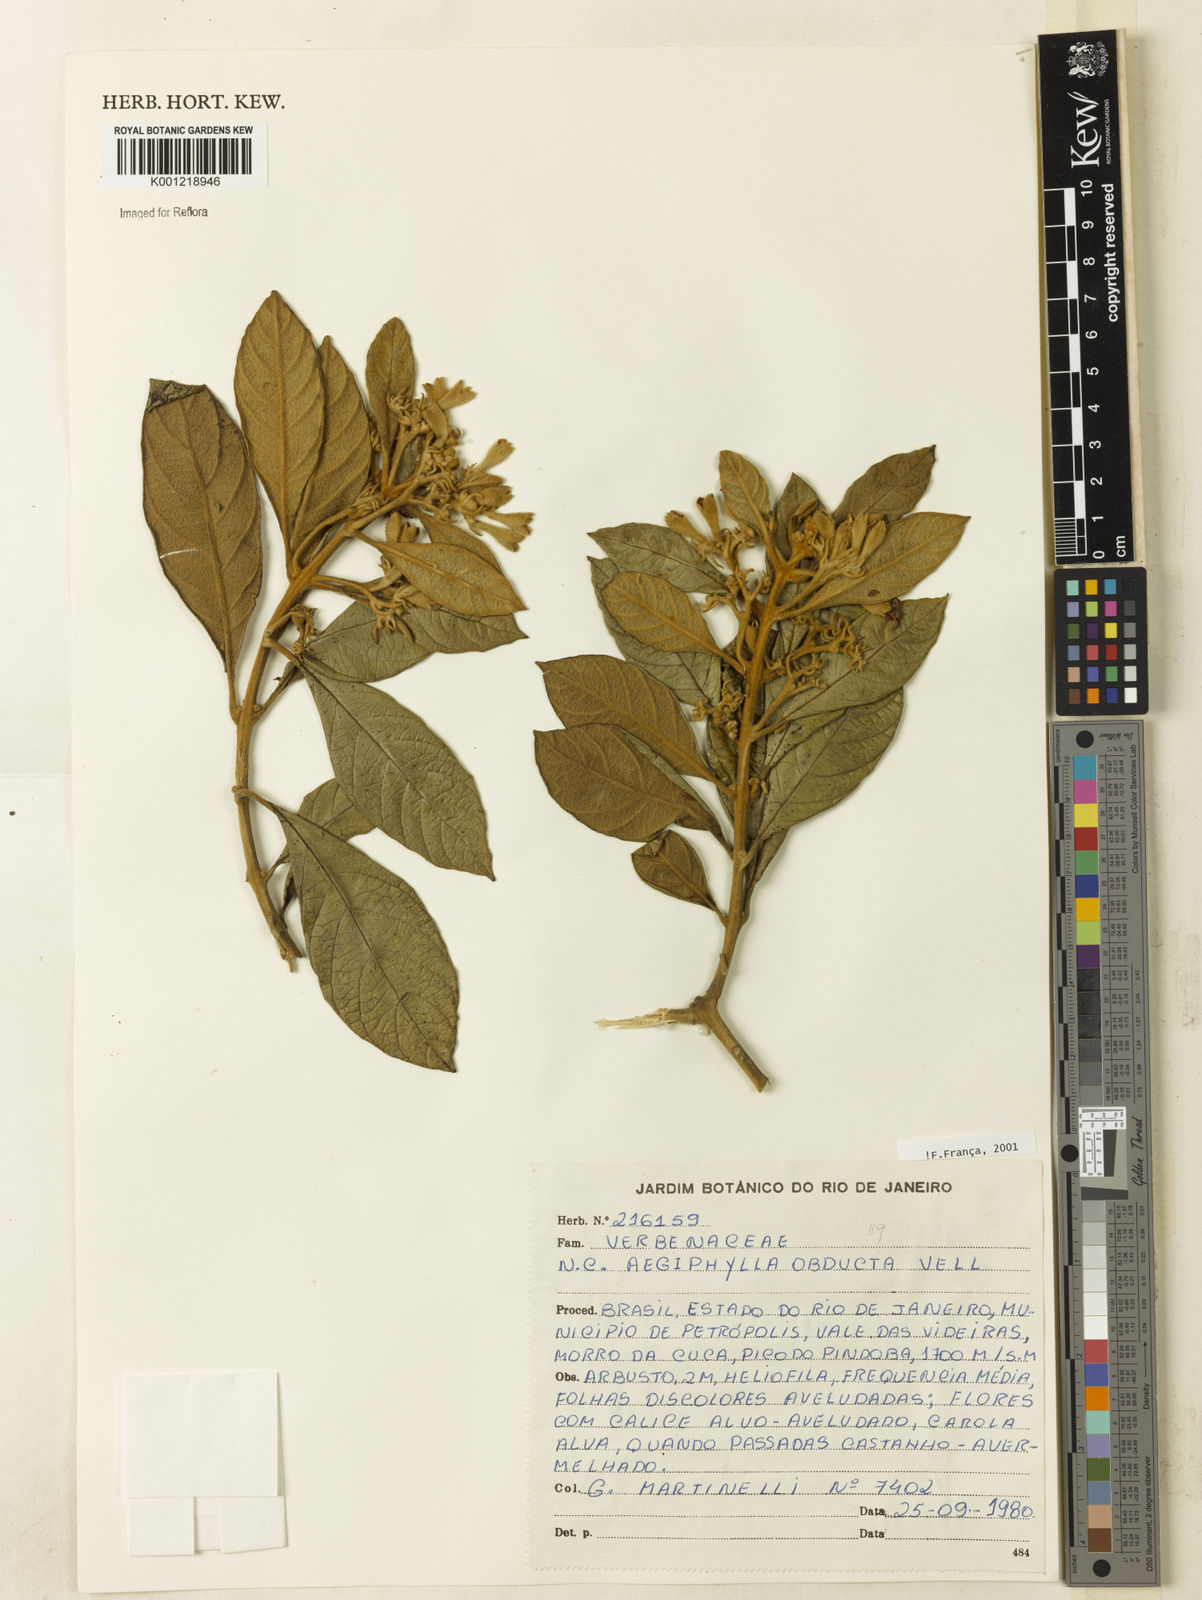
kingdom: Plantae
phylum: Tracheophyta
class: Magnoliopsida
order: Lamiales
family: Lamiaceae
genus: Aegiphila
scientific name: Aegiphila obducta
